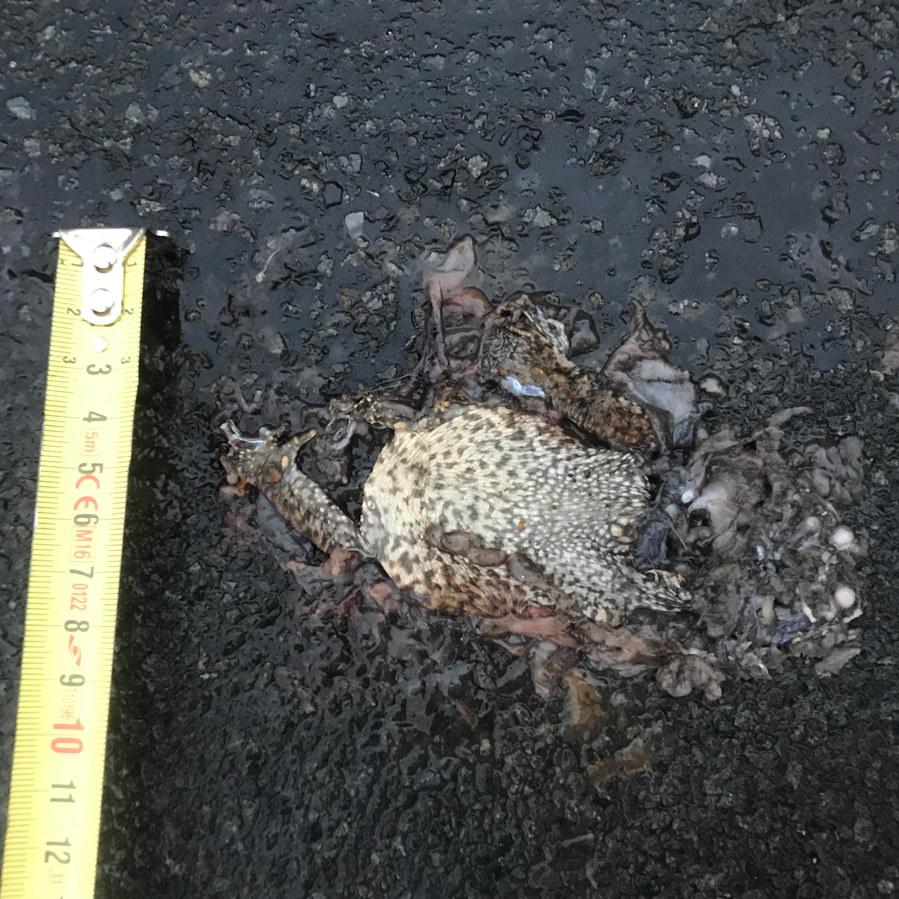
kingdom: Animalia
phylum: Chordata
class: Amphibia
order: Anura
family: Bufonidae
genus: Bufo
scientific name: Bufo bufo
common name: Common toad
